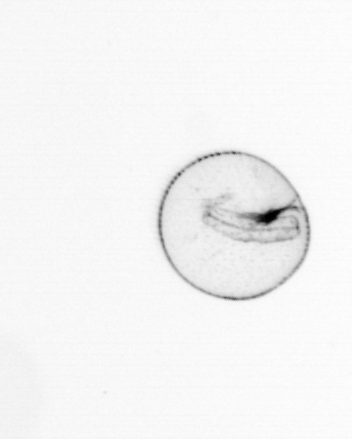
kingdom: Chromista
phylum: Myzozoa
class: Dinophyceae
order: Noctilucales
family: Noctilucaceae
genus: Noctiluca
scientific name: Noctiluca scintillans
